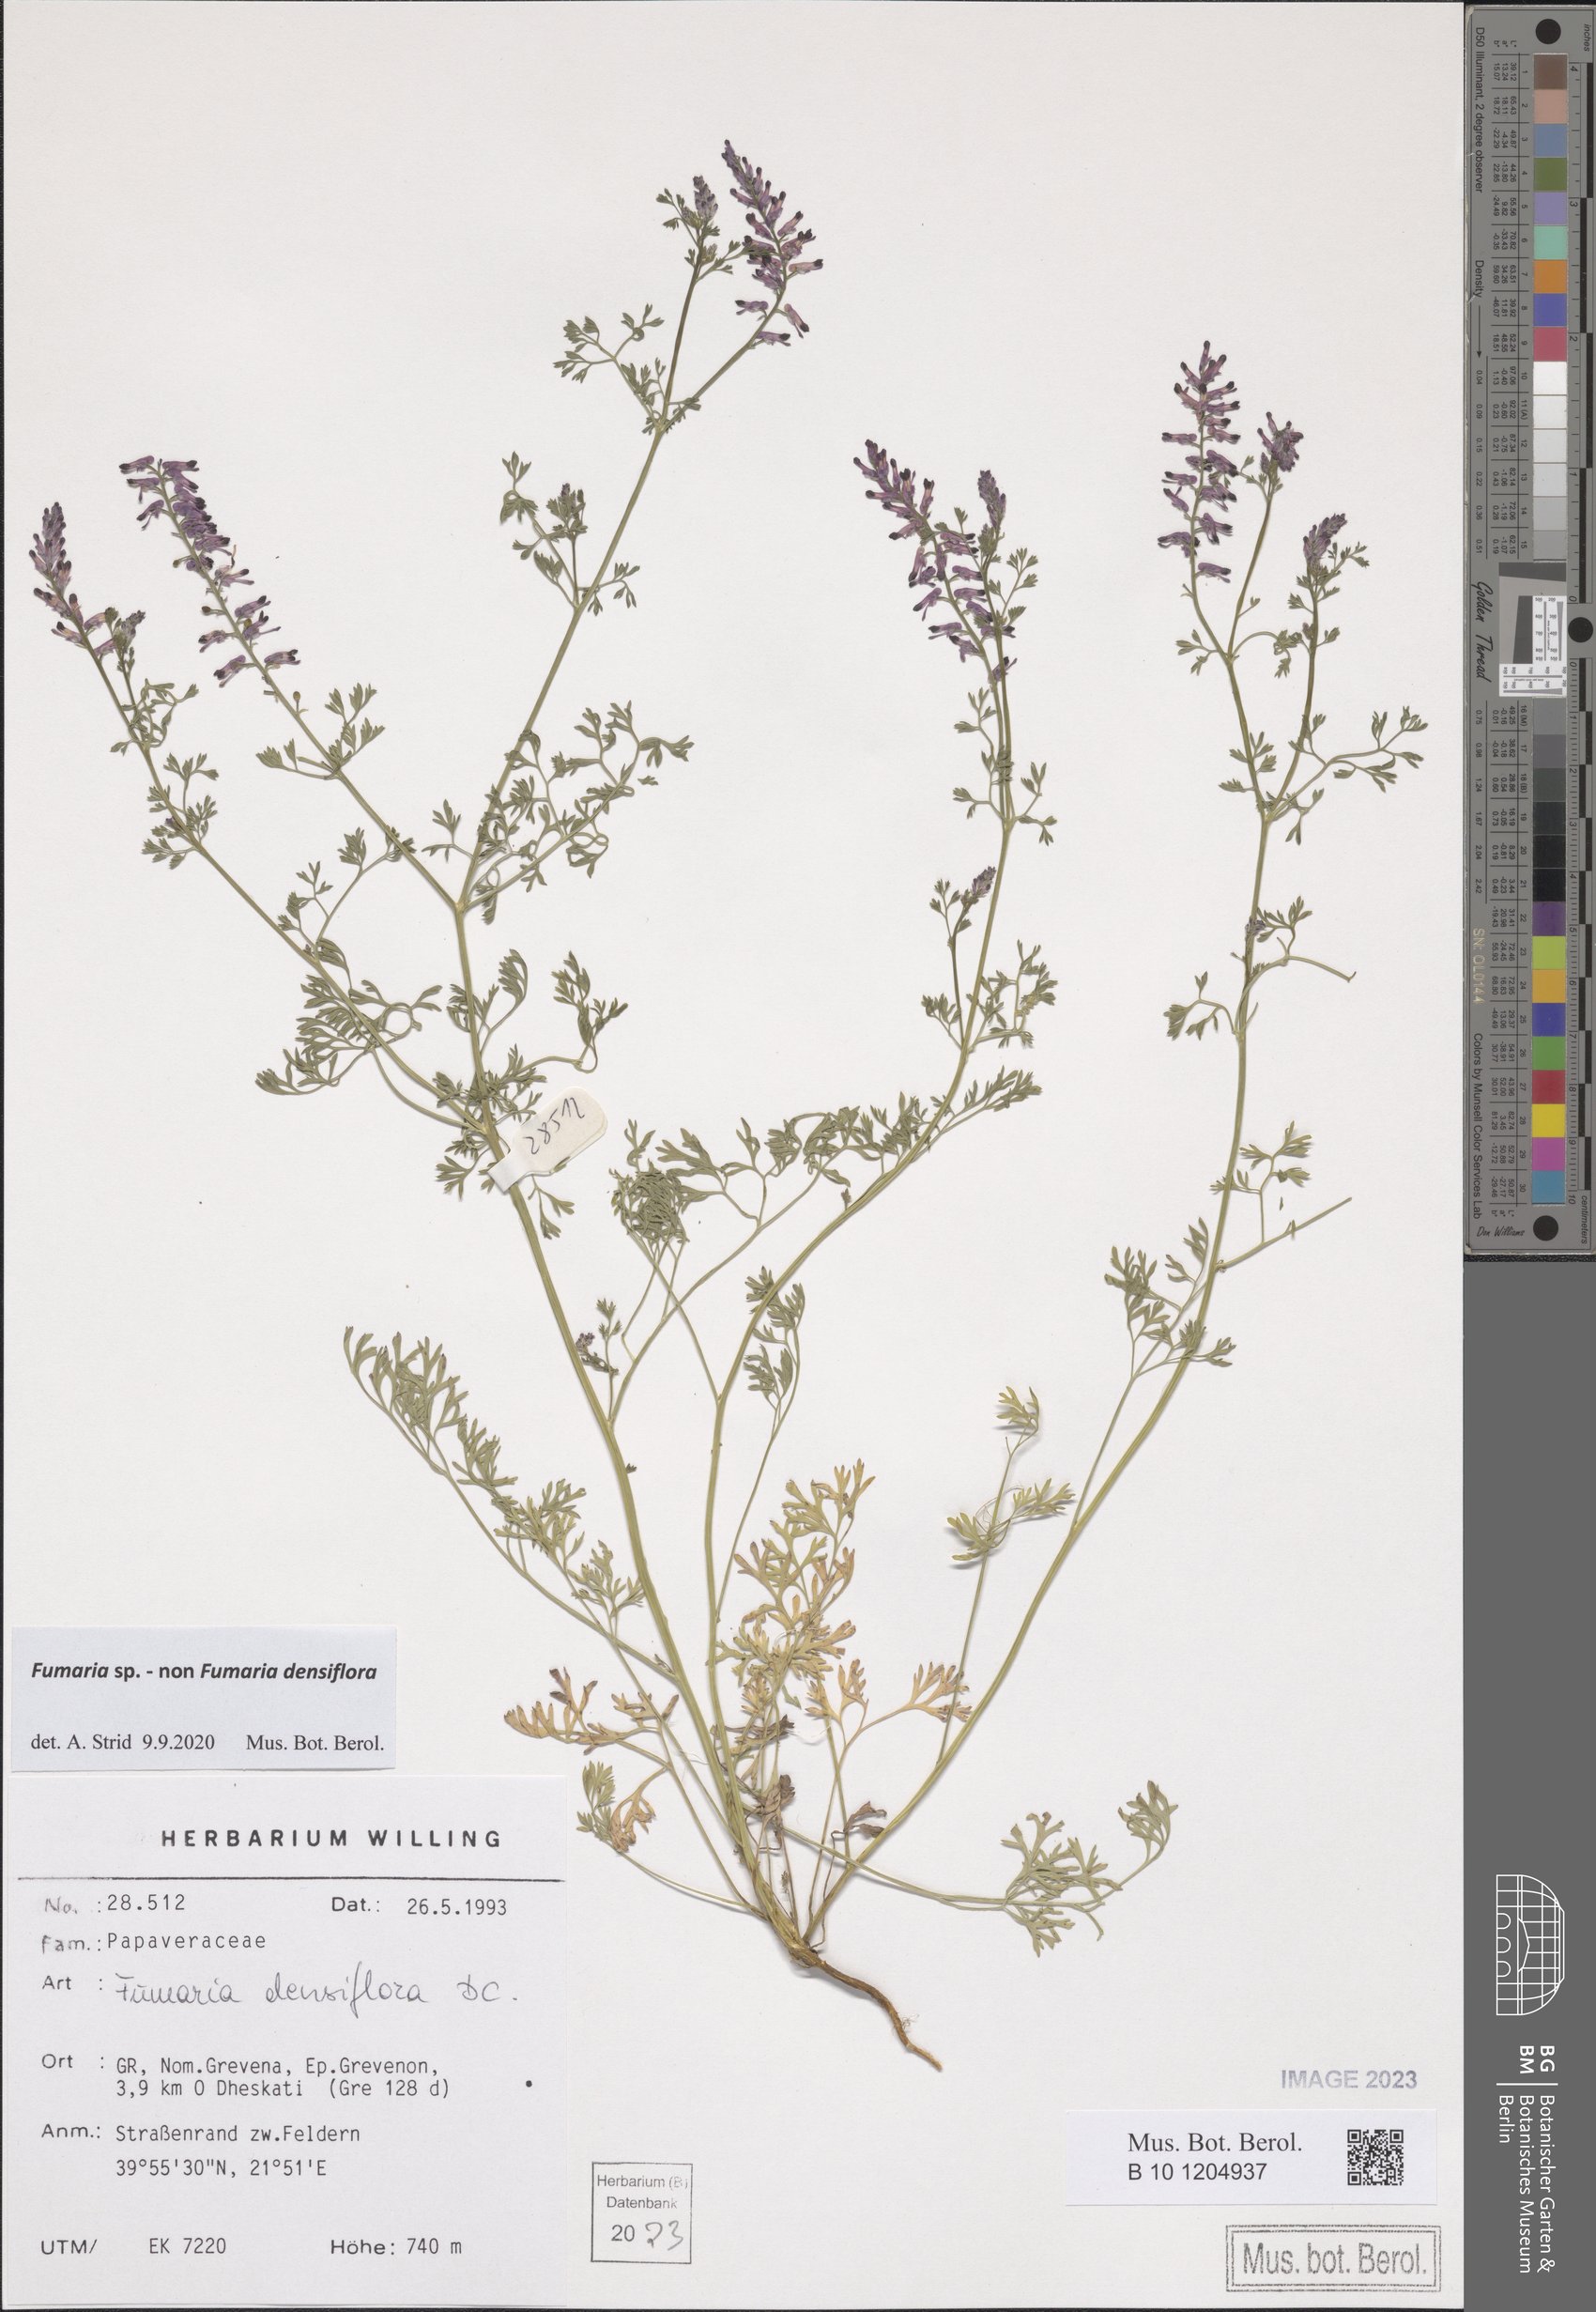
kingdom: Plantae
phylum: Tracheophyta
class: Magnoliopsida
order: Ranunculales
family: Papaveraceae
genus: Fumaria
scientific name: Fumaria
